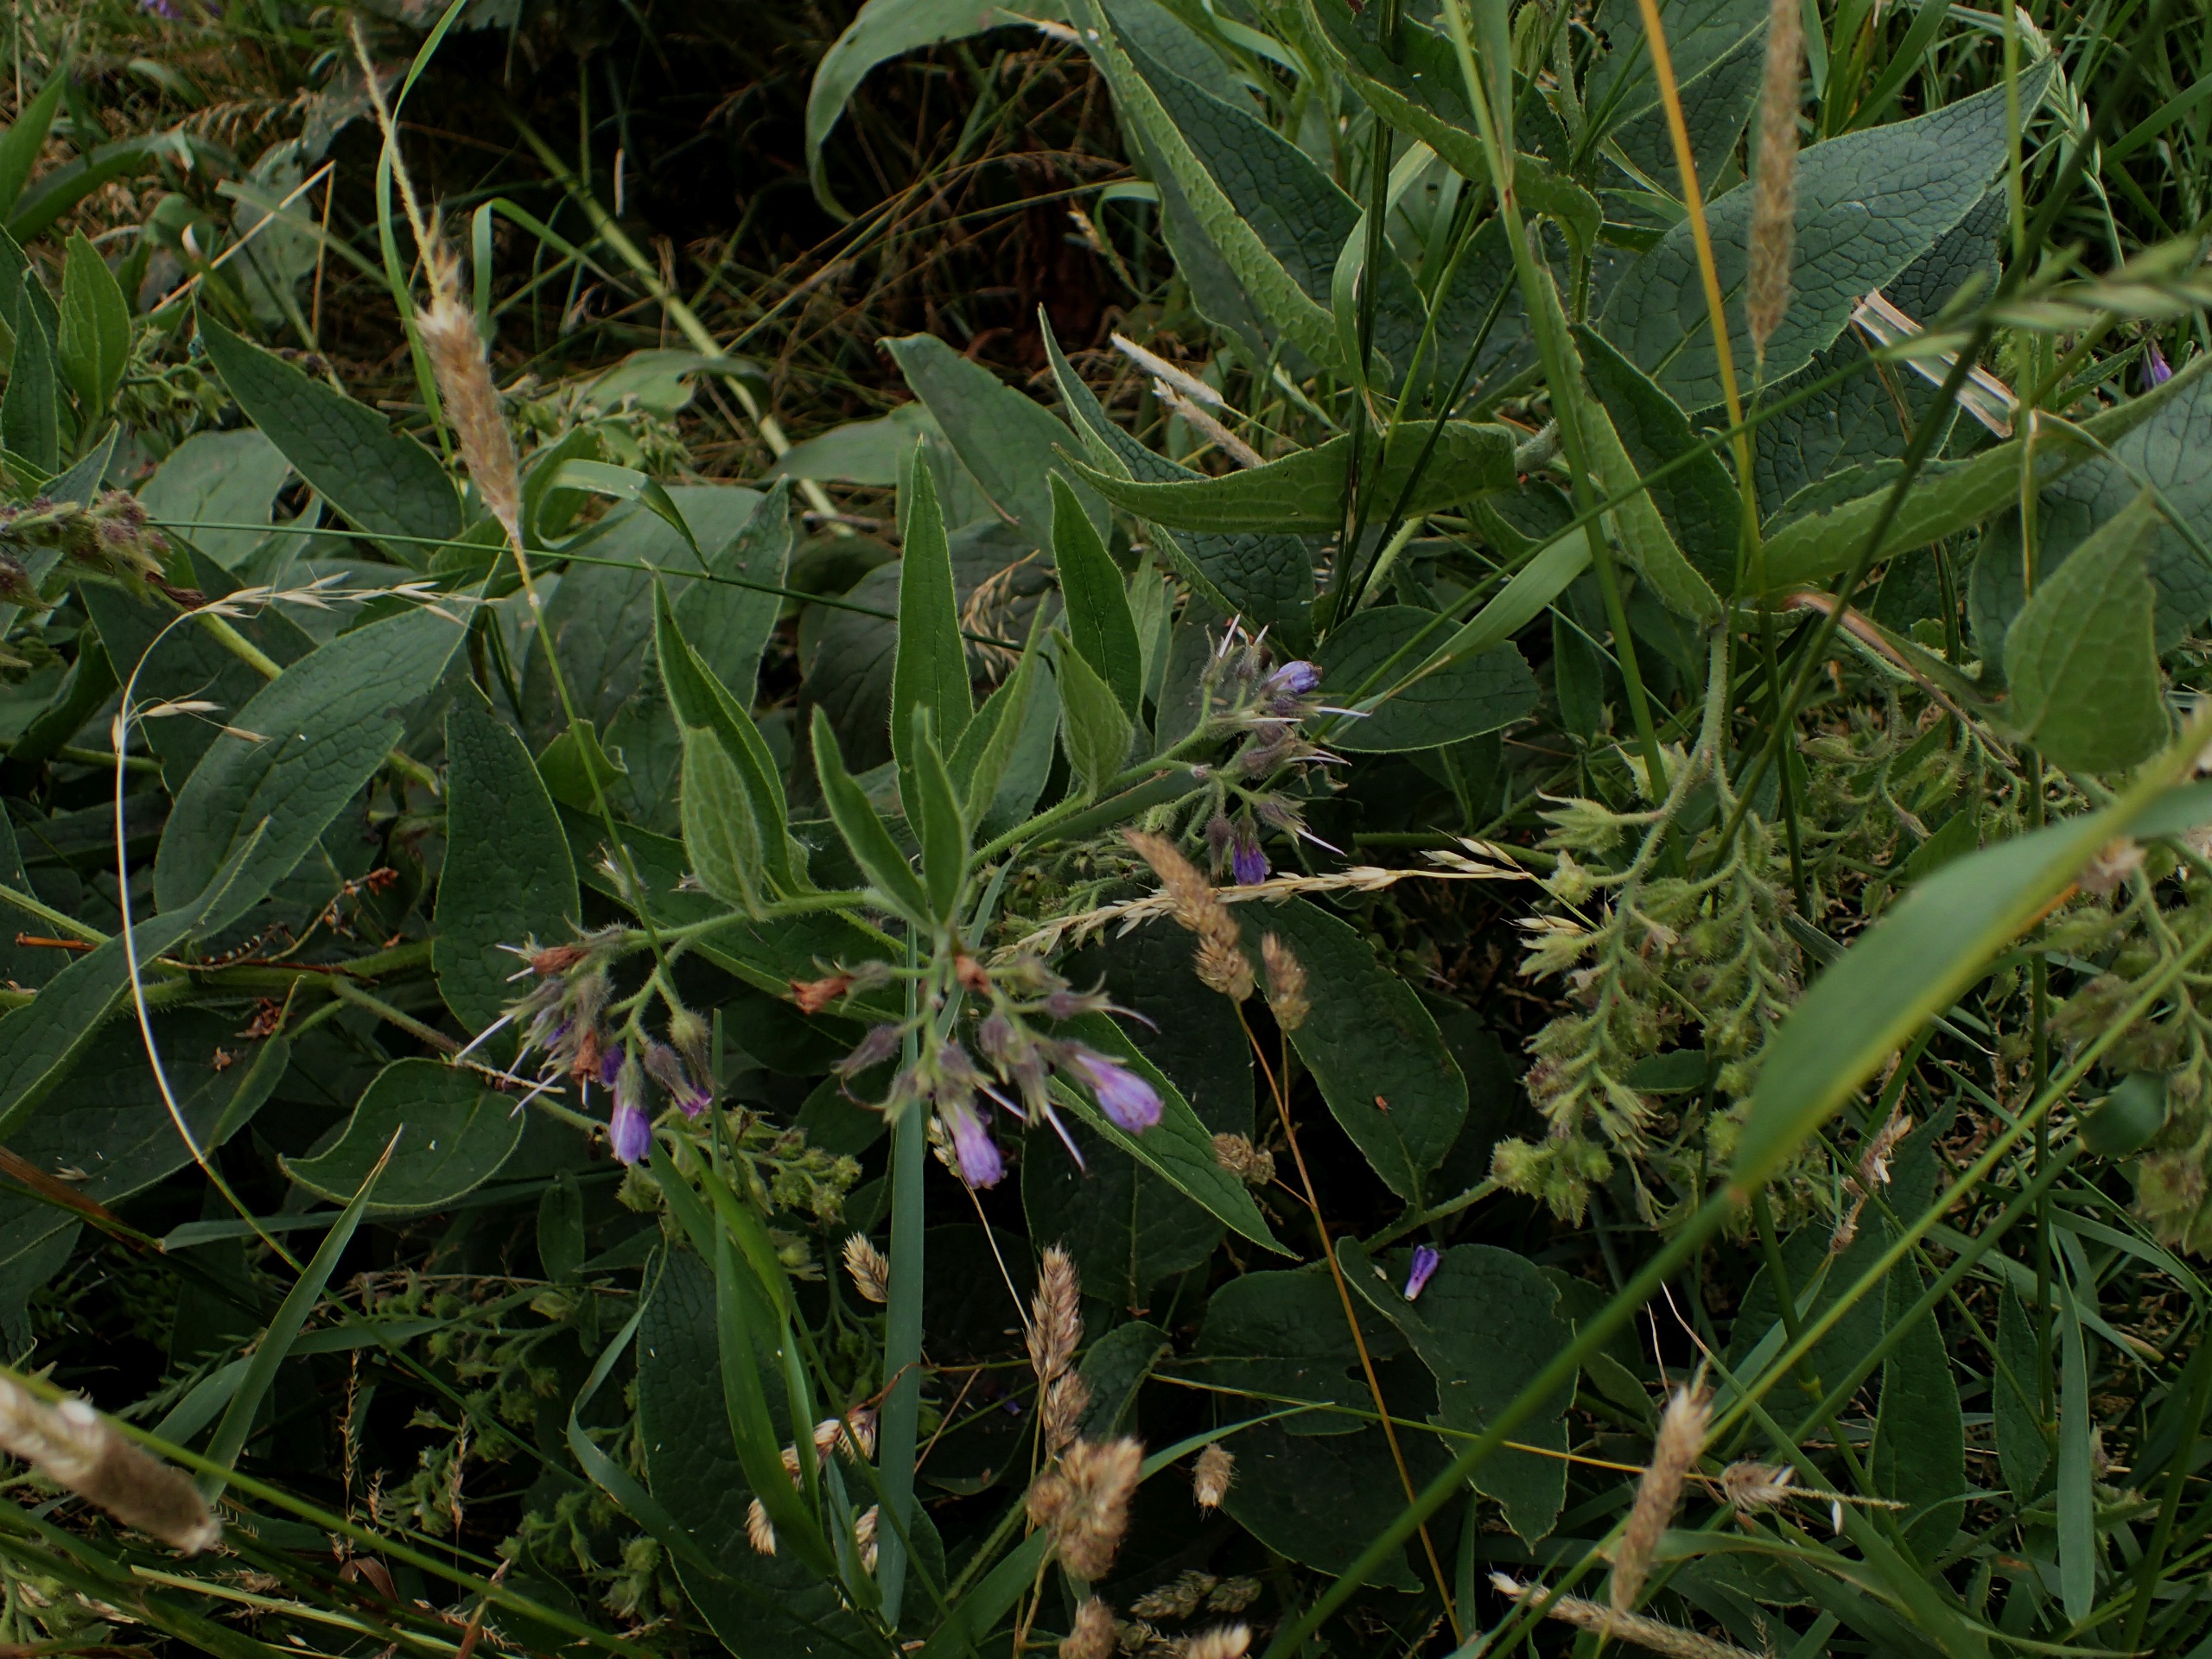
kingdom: Plantae
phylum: Tracheophyta
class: Magnoliopsida
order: Boraginales
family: Boraginaceae
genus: Symphytum
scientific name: Symphytum uplandicum
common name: Foder-kulsukker
